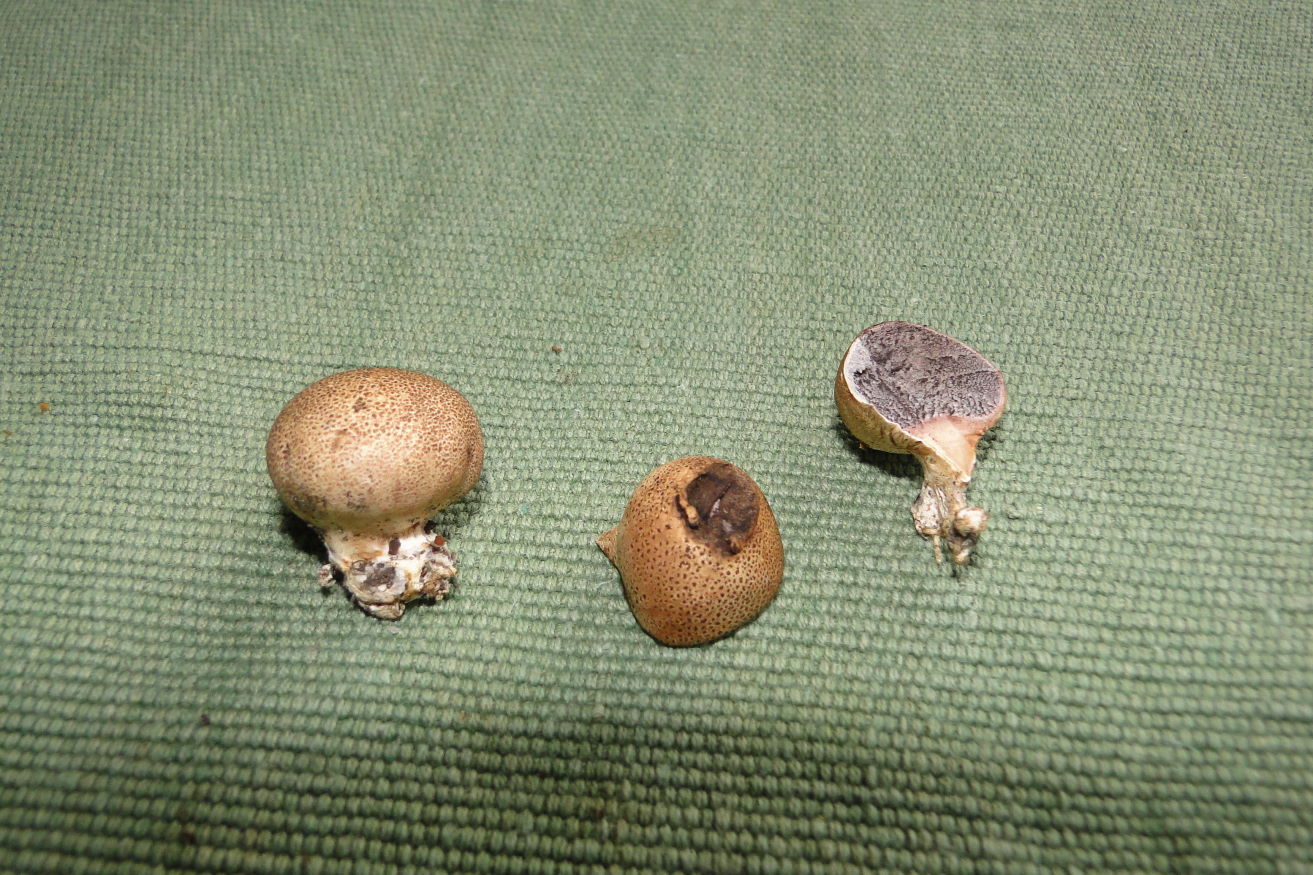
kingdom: Fungi
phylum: Basidiomycota
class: Agaricomycetes
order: Boletales
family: Sclerodermataceae
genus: Scleroderma
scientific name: Scleroderma areolatum
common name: plettet bruskbold
